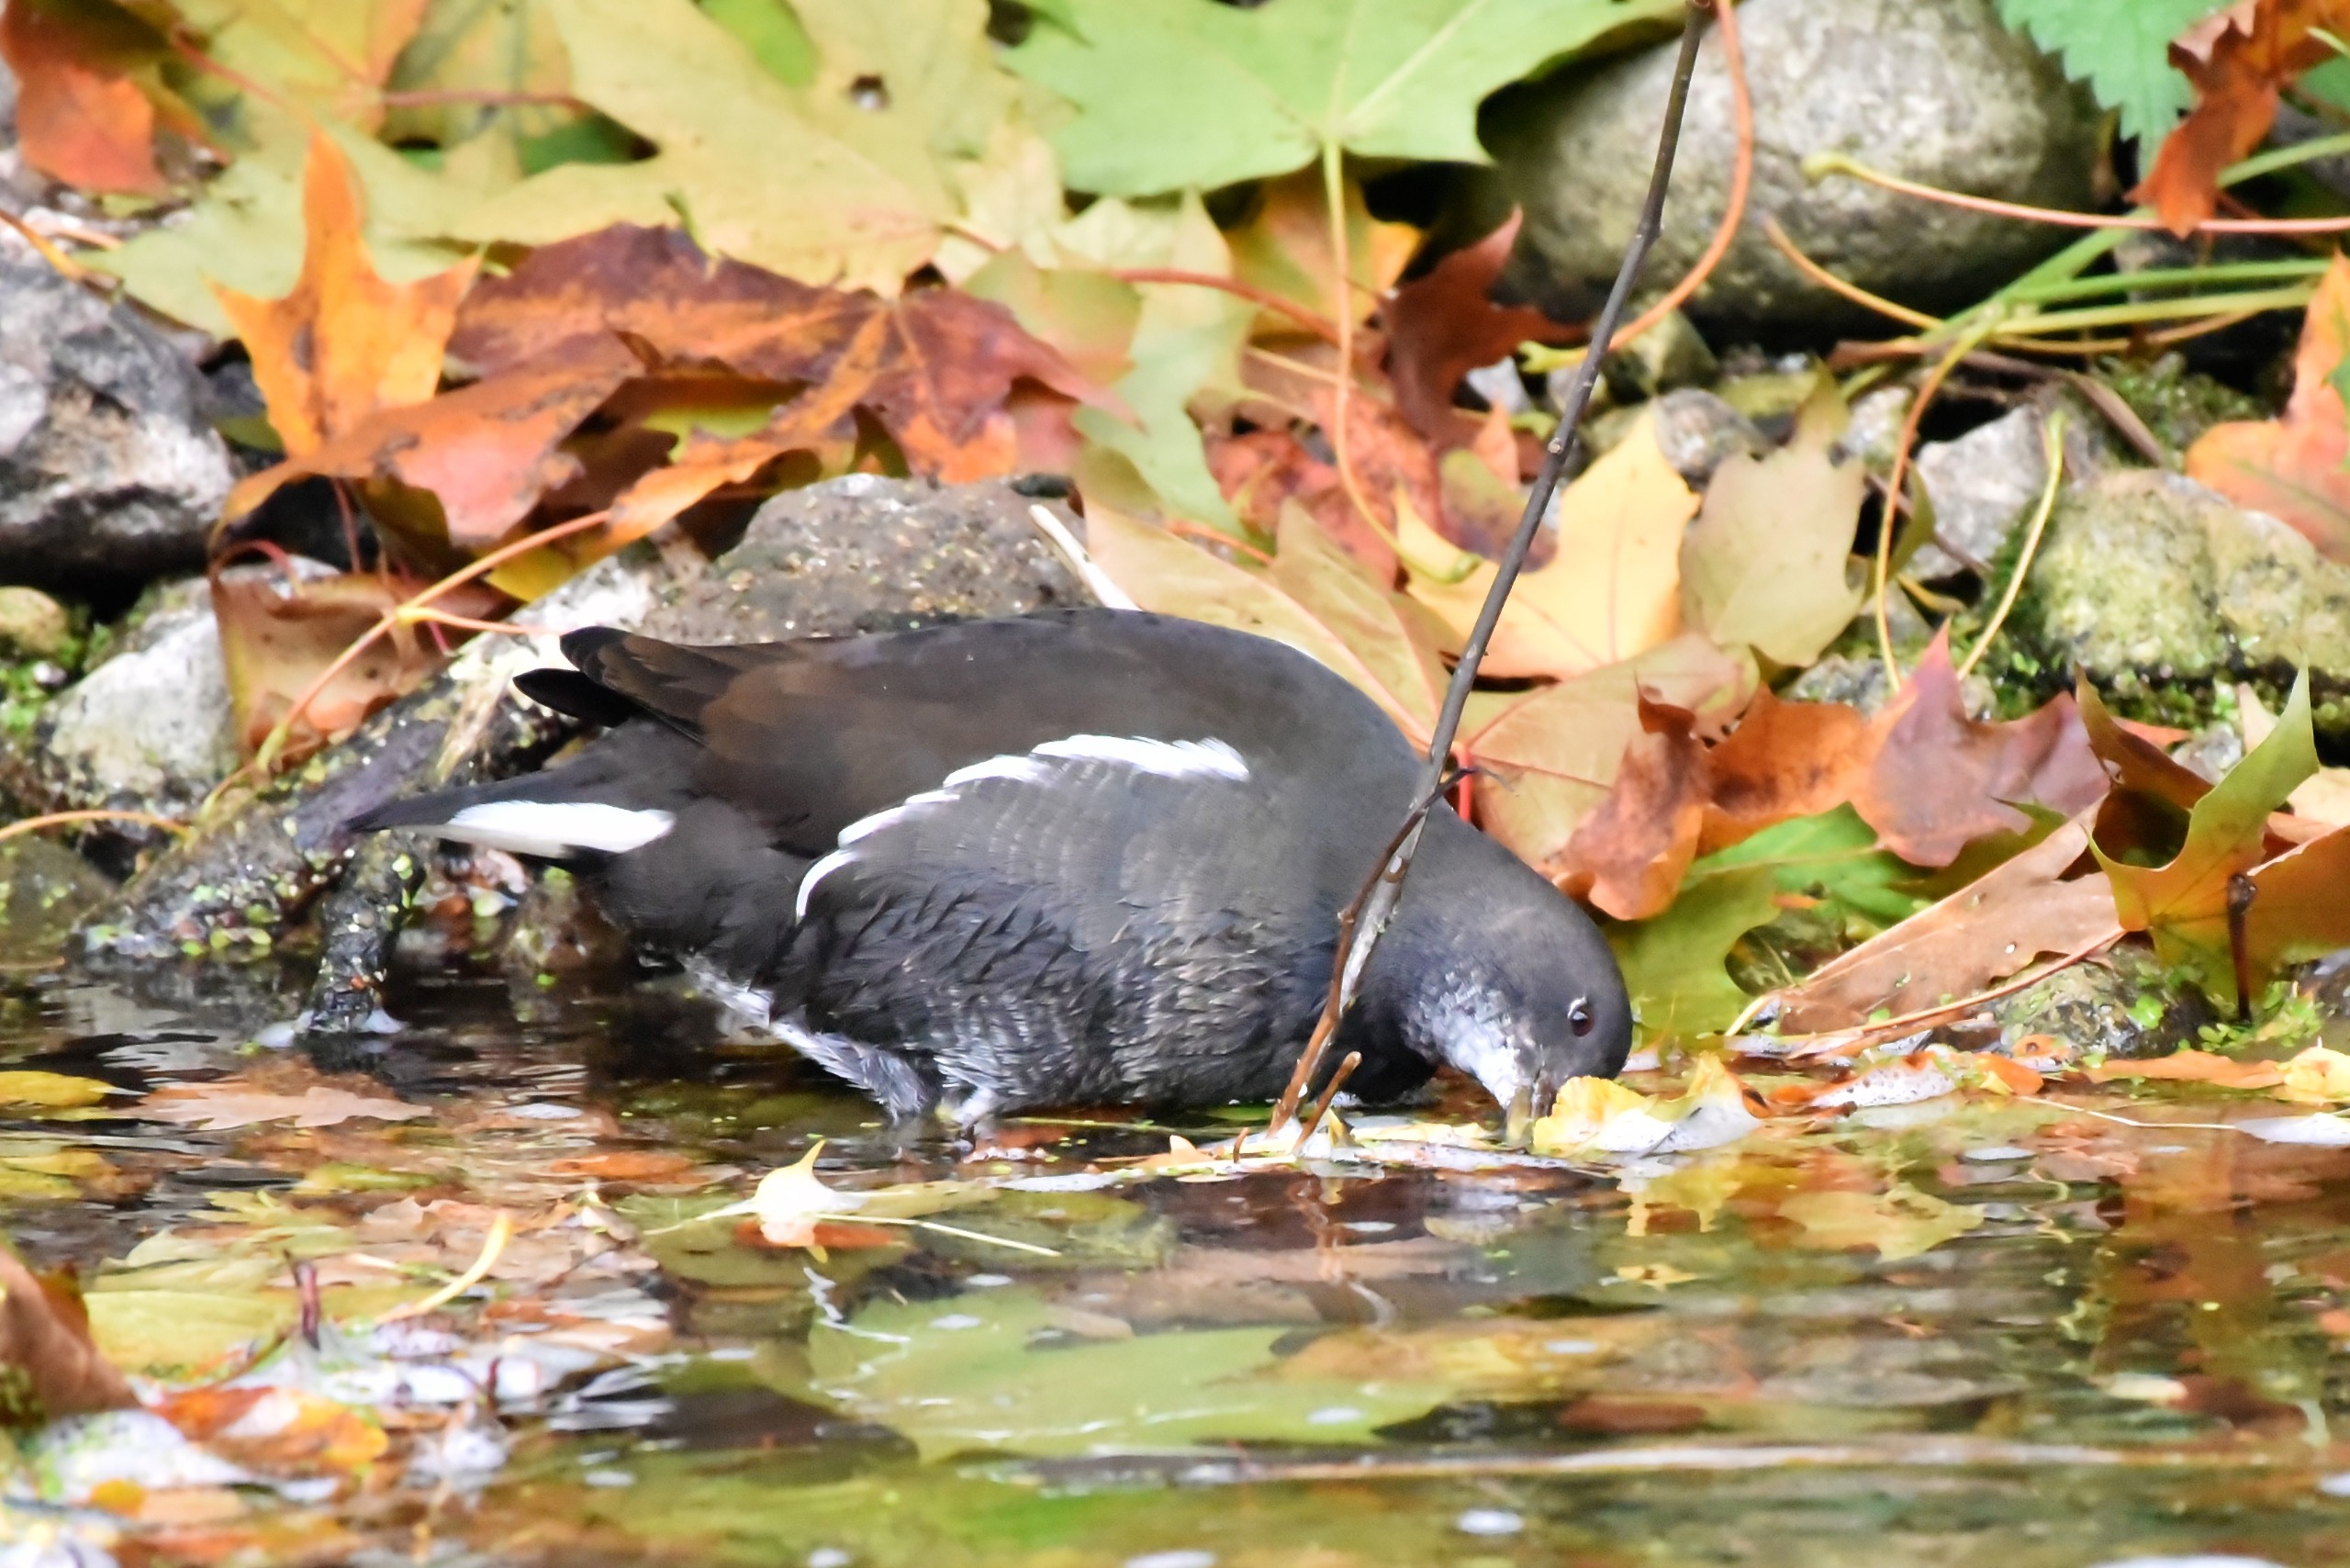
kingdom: Animalia
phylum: Chordata
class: Aves
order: Gruiformes
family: Rallidae
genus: Gallinula
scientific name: Gallinula chloropus
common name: Grønbenet rørhøne
